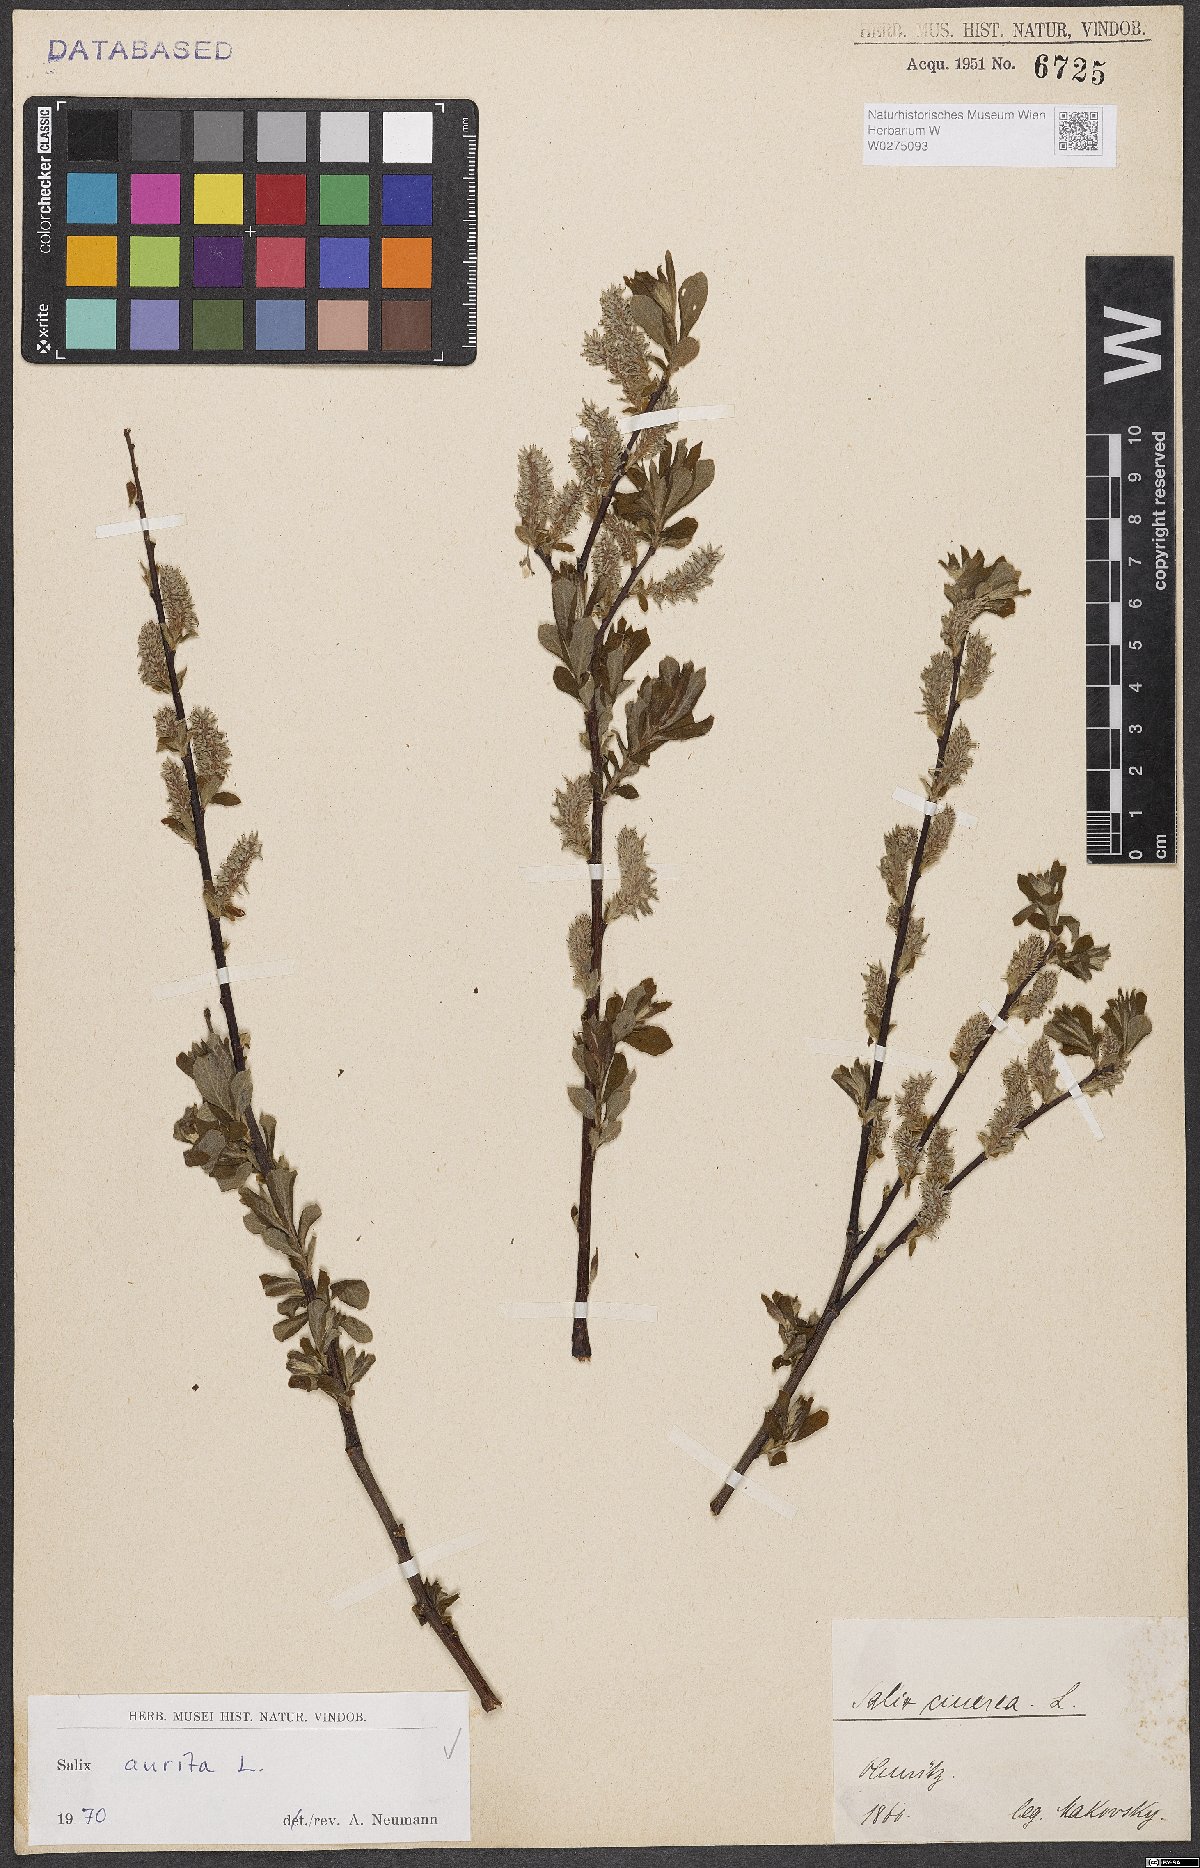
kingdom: Plantae
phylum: Tracheophyta
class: Magnoliopsida
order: Malpighiales
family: Salicaceae
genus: Salix
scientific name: Salix aurita
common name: Eared willow
